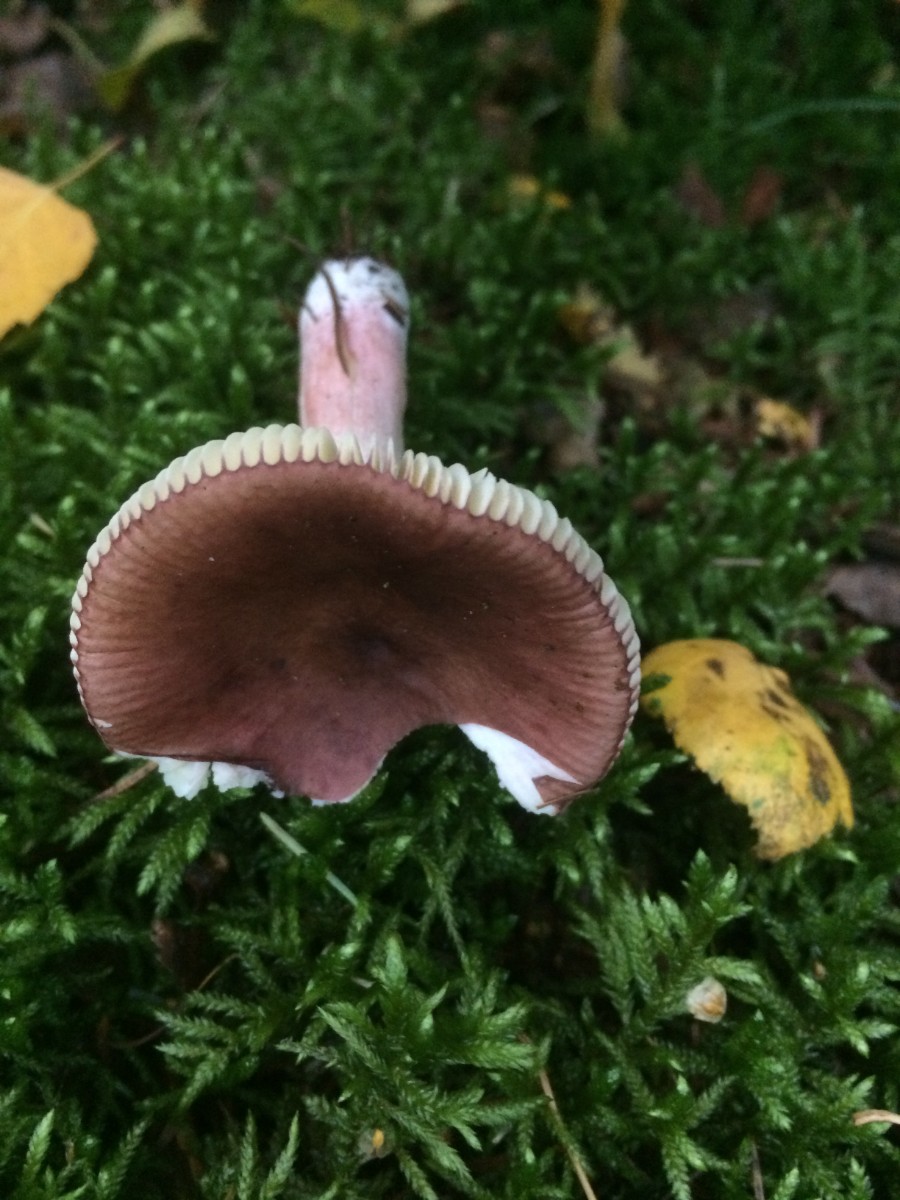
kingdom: Fungi
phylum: Basidiomycota
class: Agaricomycetes
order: Russulales
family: Russulaceae
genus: Russula
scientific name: Russula nitida
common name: året skørhat
